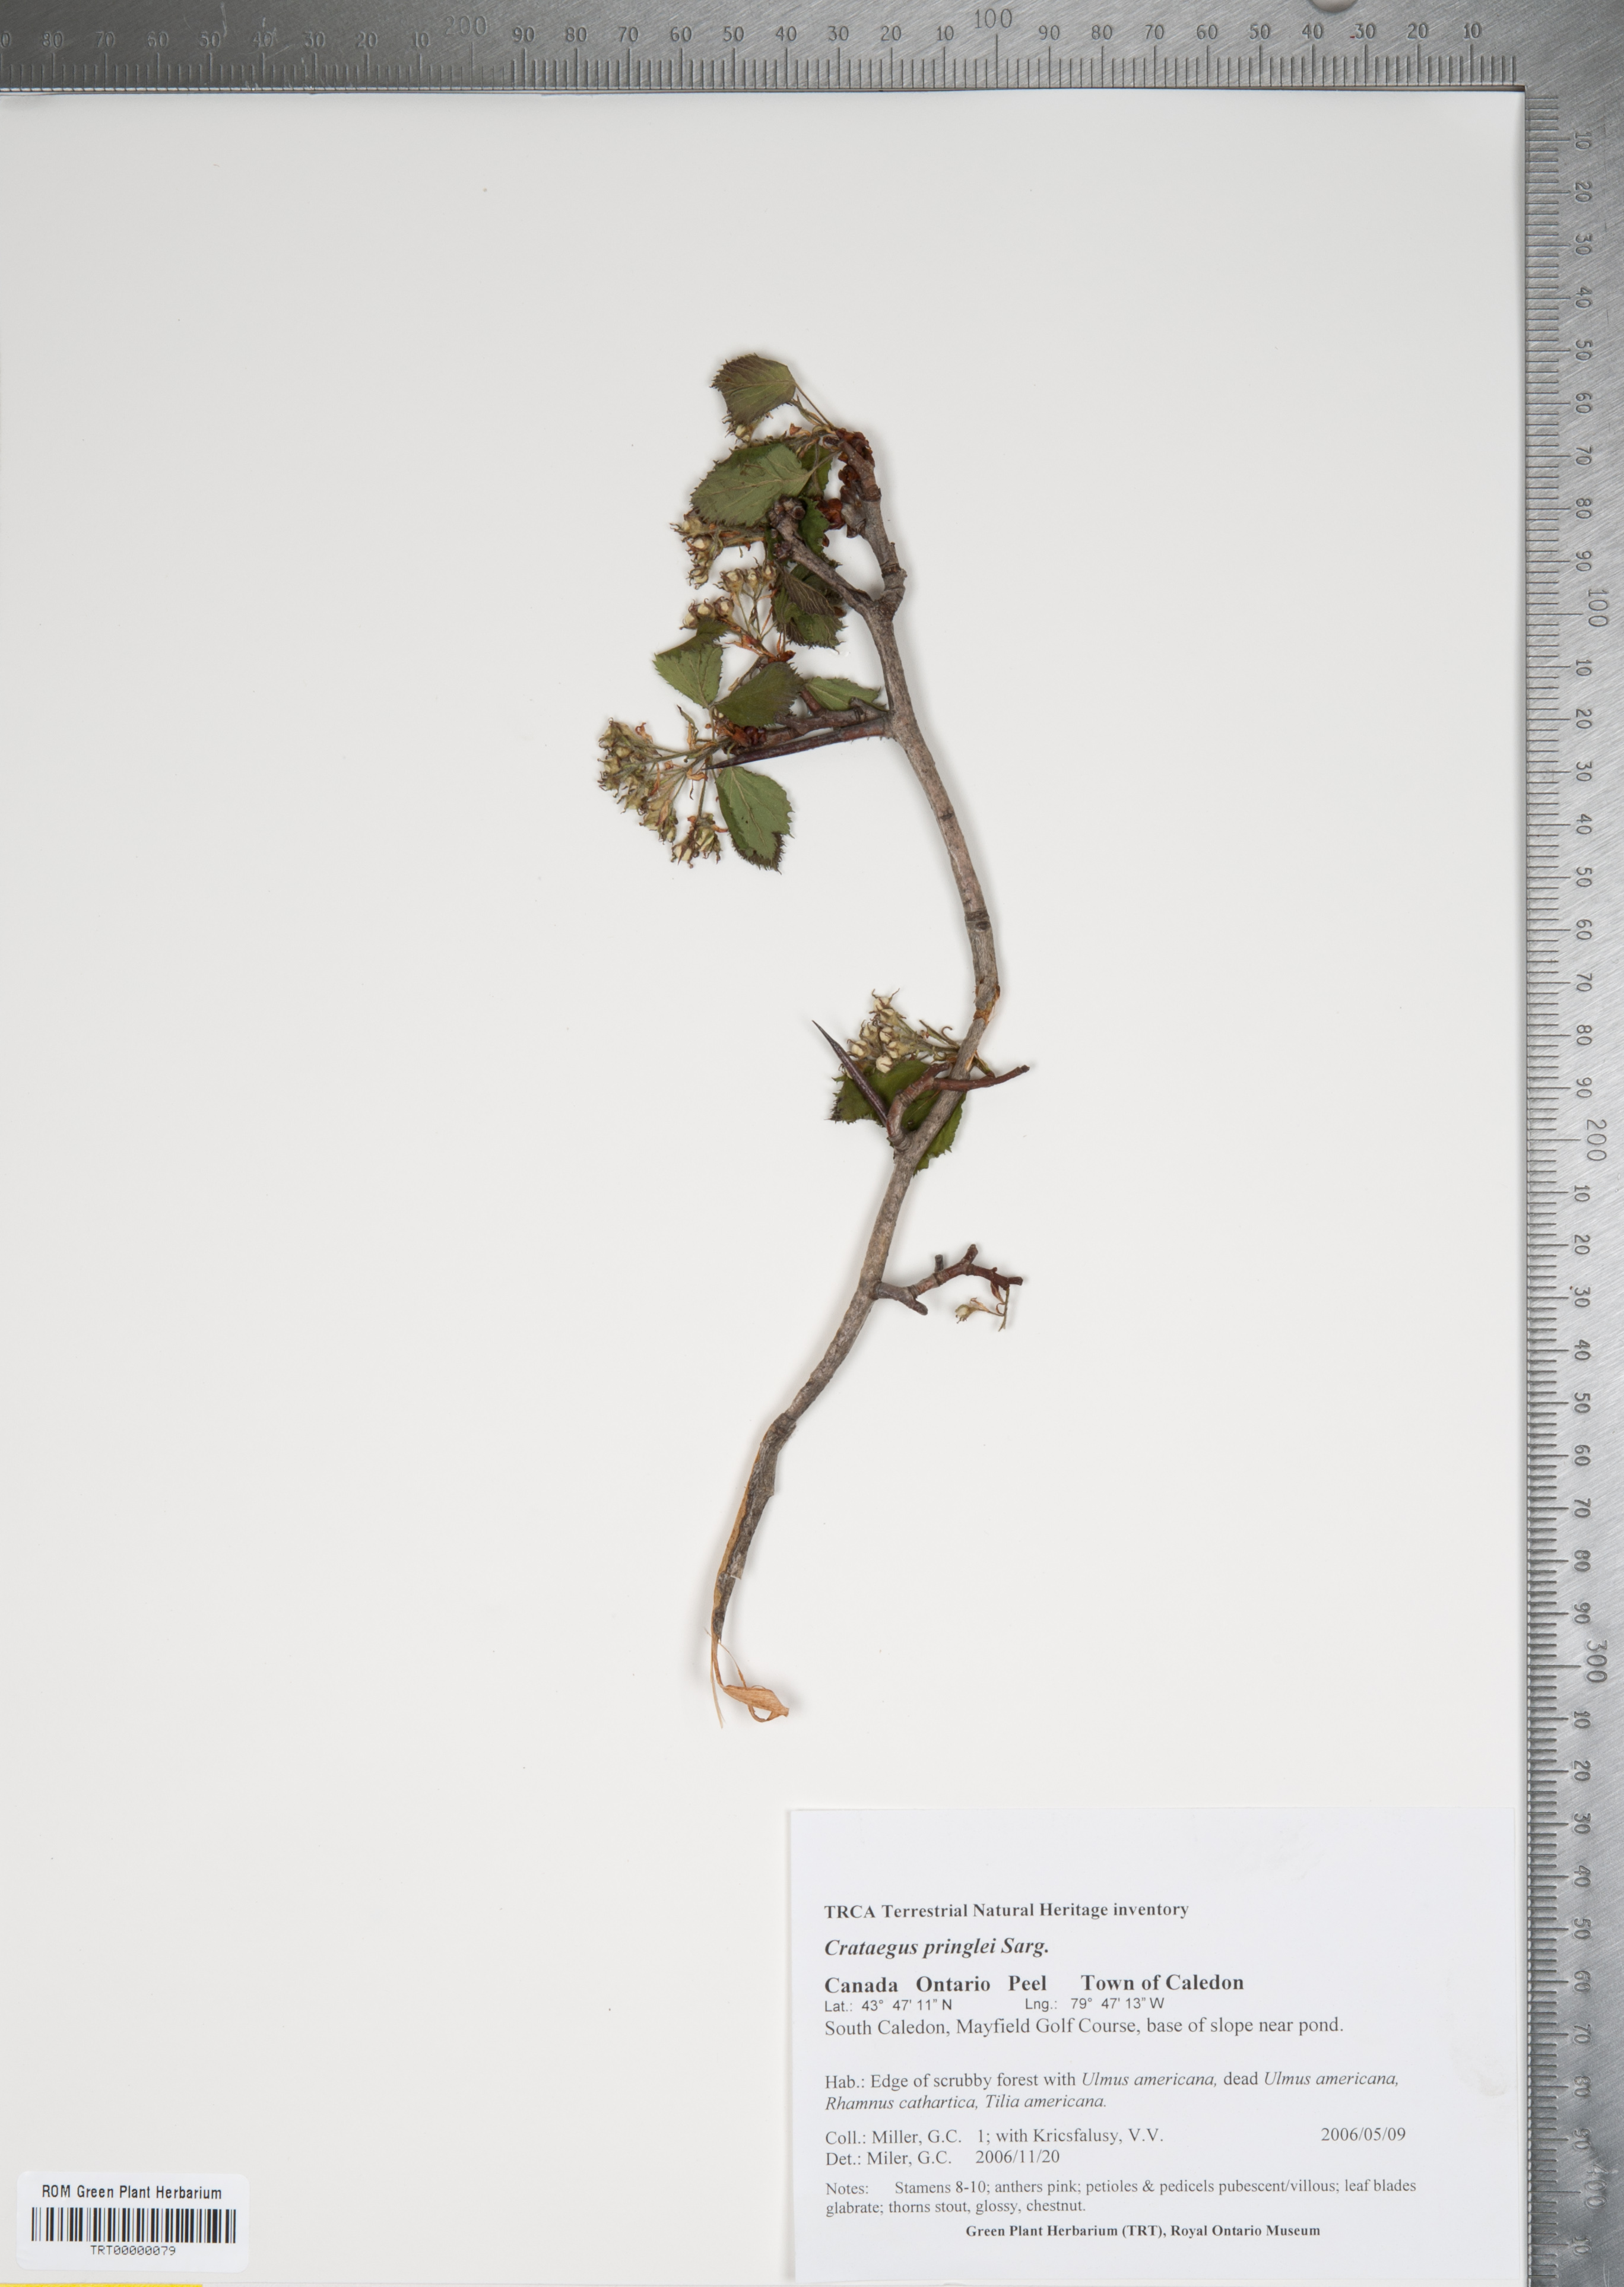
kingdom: Plantae
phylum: Tracheophyta
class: Magnoliopsida
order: Rosales
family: Rosaceae
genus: Crataegus
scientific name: Crataegus coccinea
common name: Scarlet hawthorn
